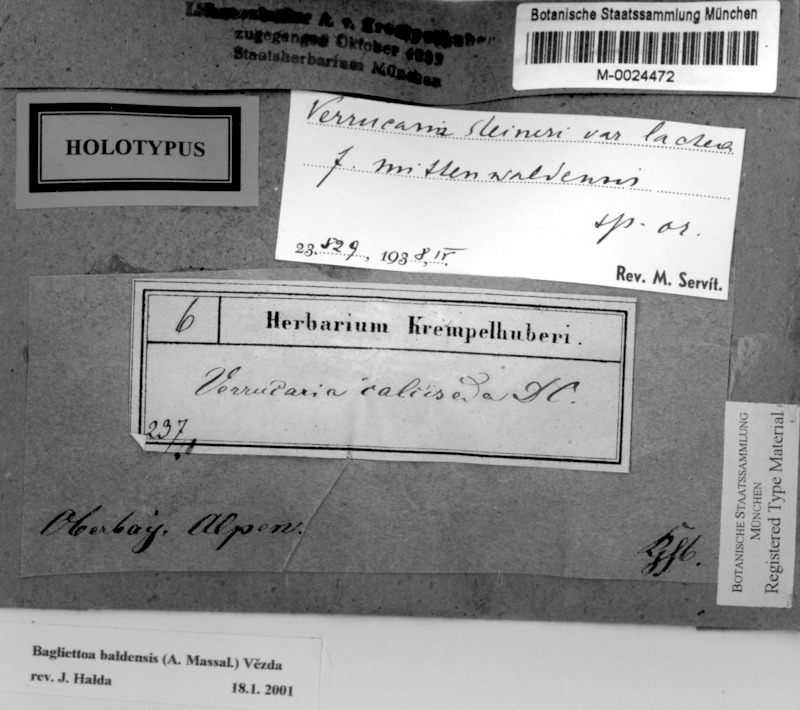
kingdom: Fungi
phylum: Ascomycota
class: Eurotiomycetes
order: Verrucariales
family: Verrucariaceae
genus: Bagliettoa
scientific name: Bagliettoa baldensis
